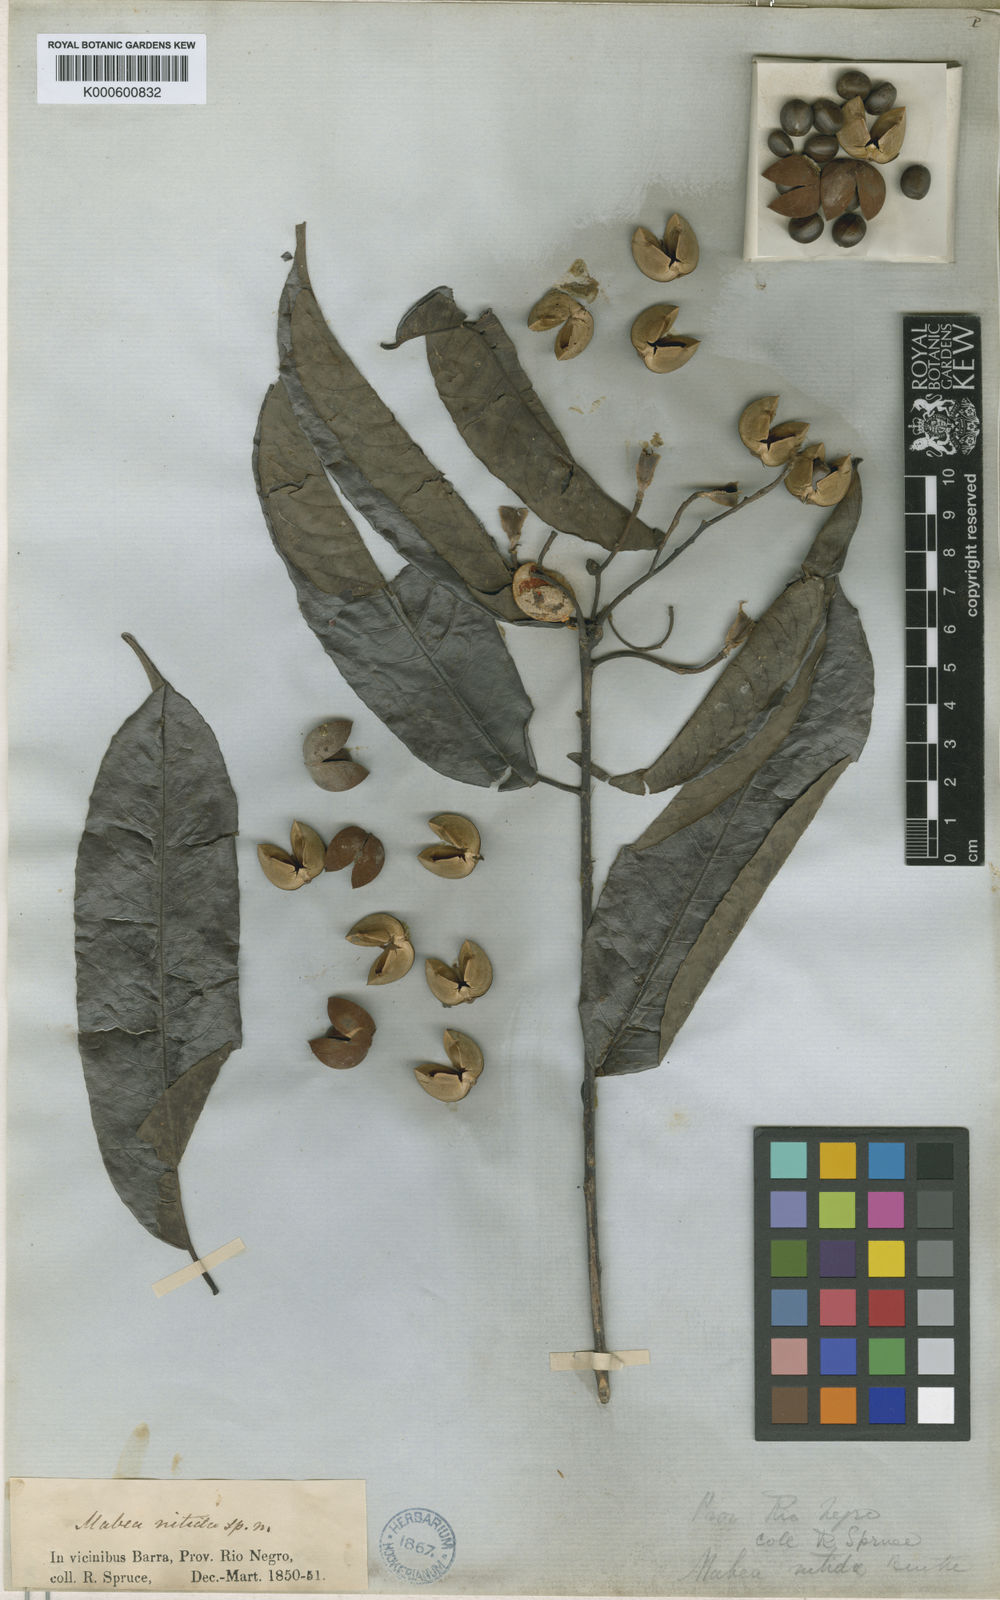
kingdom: Plantae
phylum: Tracheophyta
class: Magnoliopsida
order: Malpighiales
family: Euphorbiaceae
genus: Mabea
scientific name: Mabea nitida
